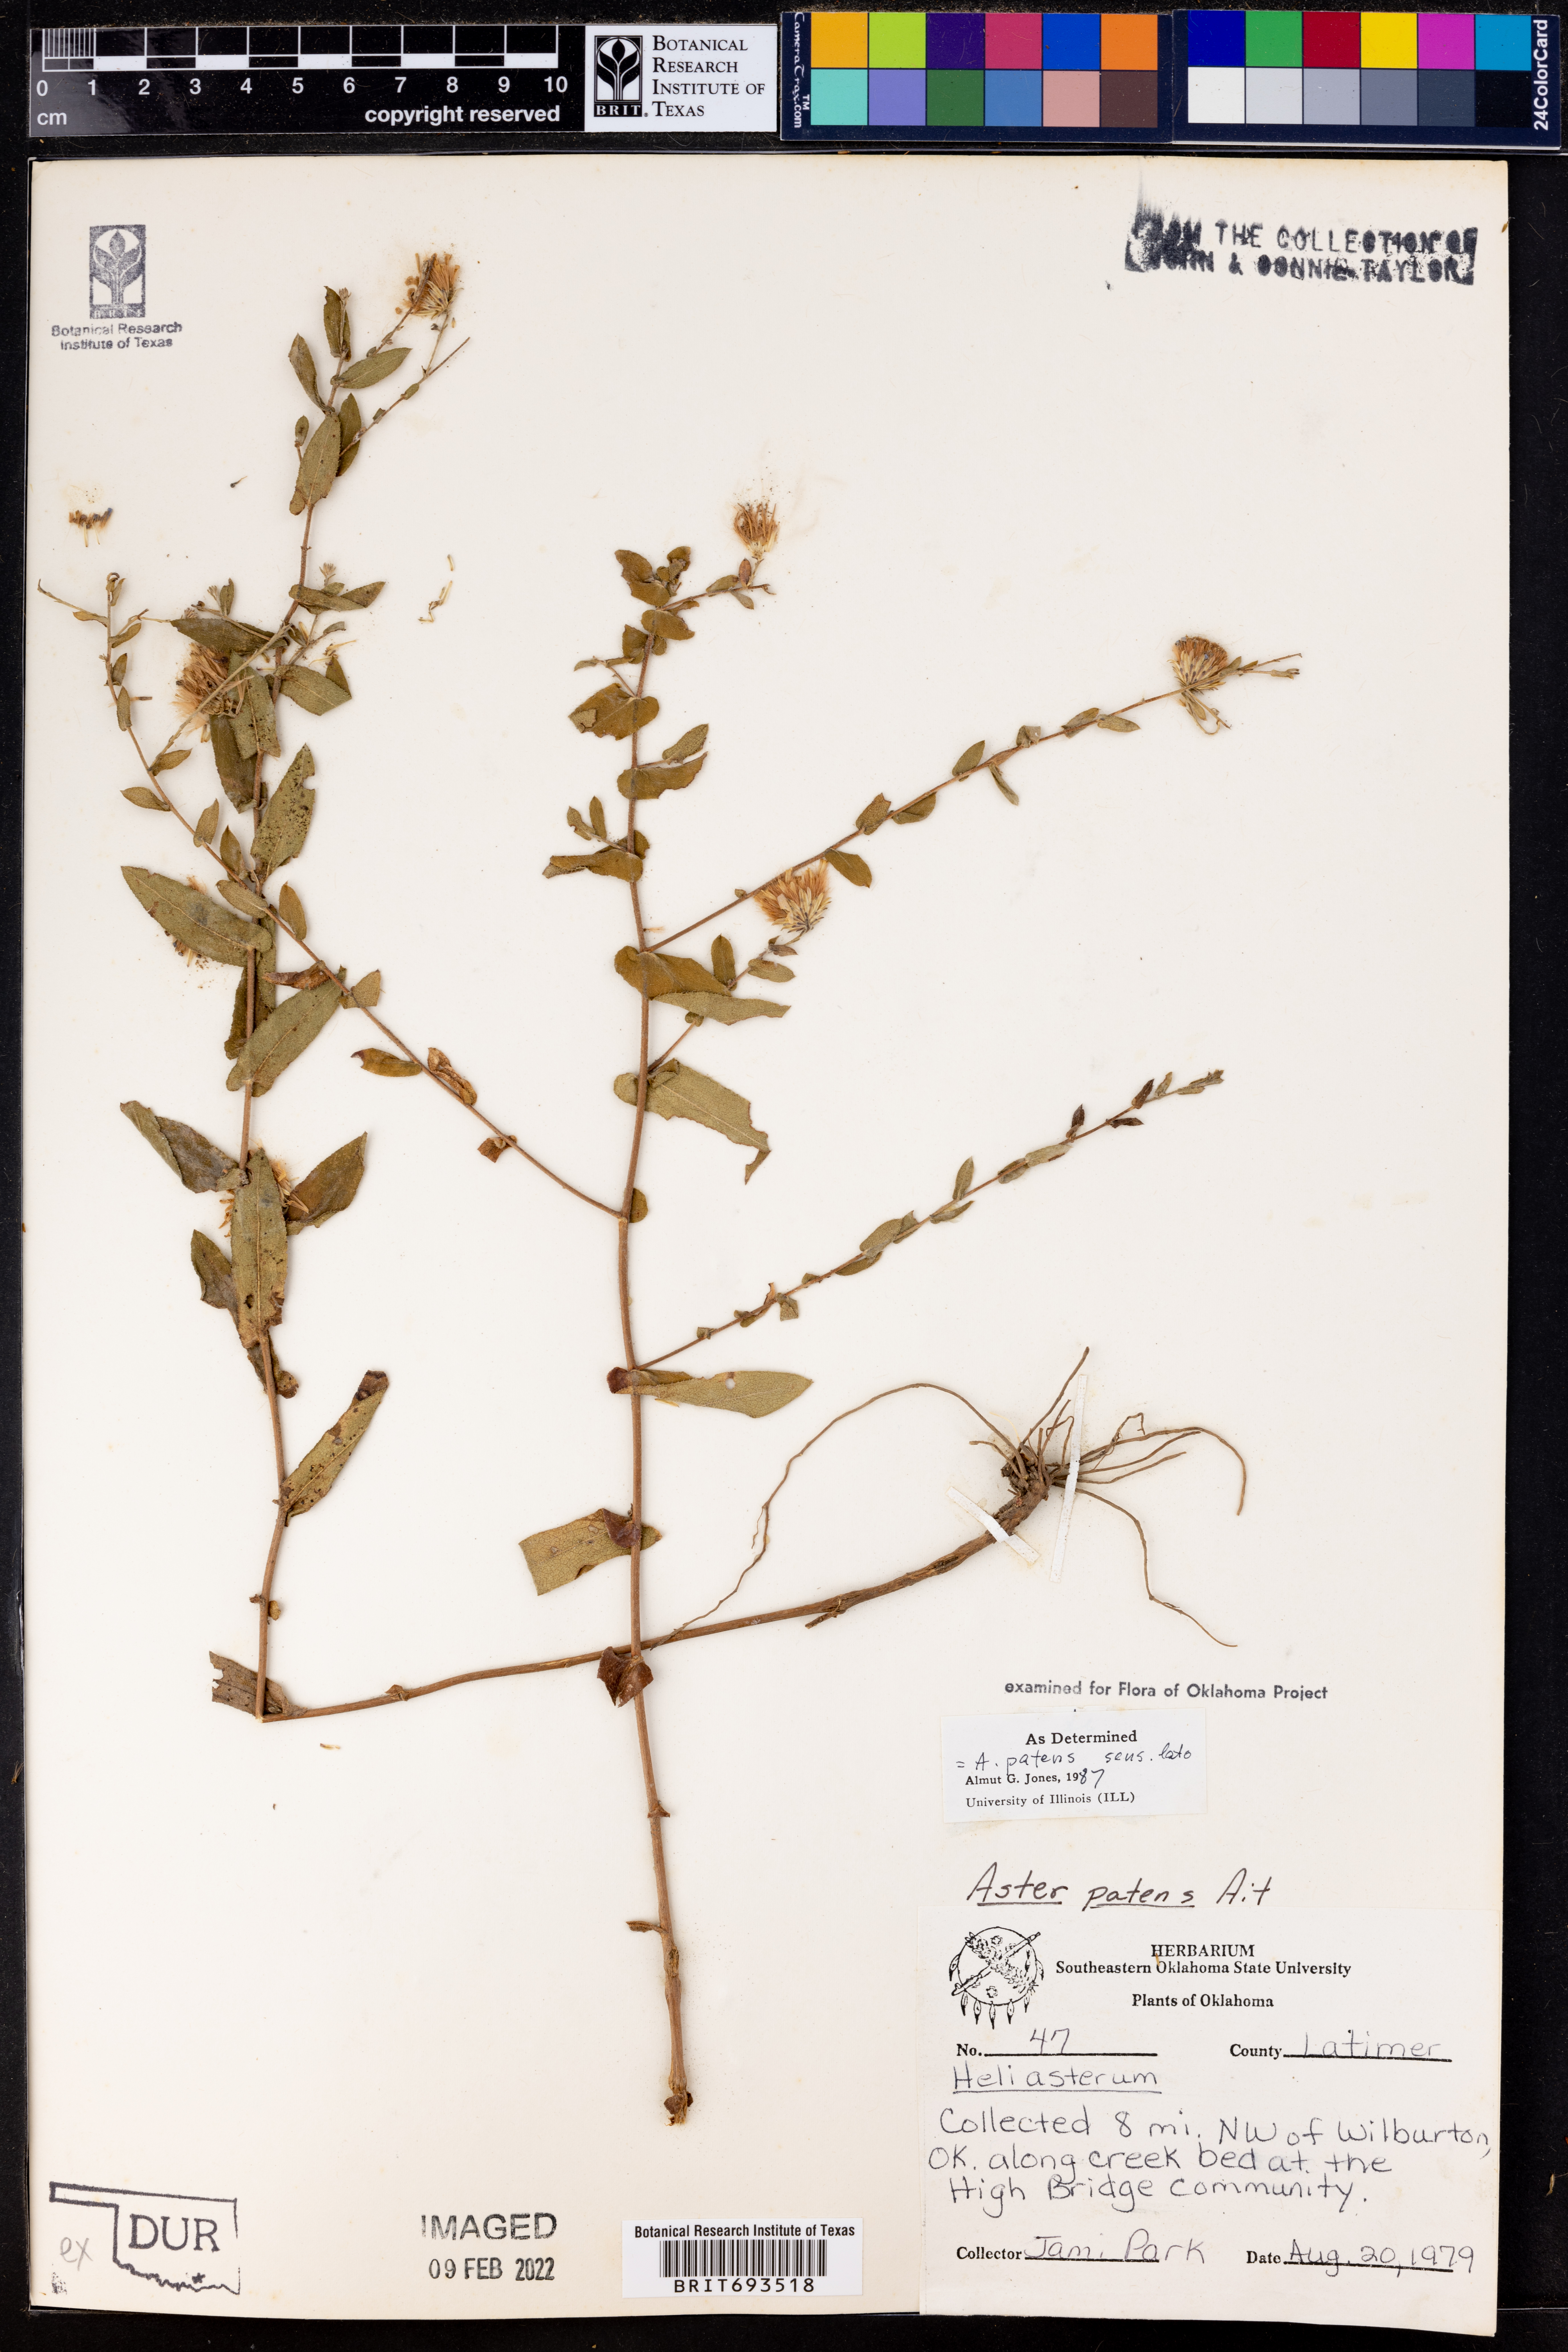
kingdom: Plantae
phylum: Tracheophyta
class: Magnoliopsida
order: Asterales
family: Asteraceae
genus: Symphyotrichum
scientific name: Symphyotrichum patens
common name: Late purple aster
